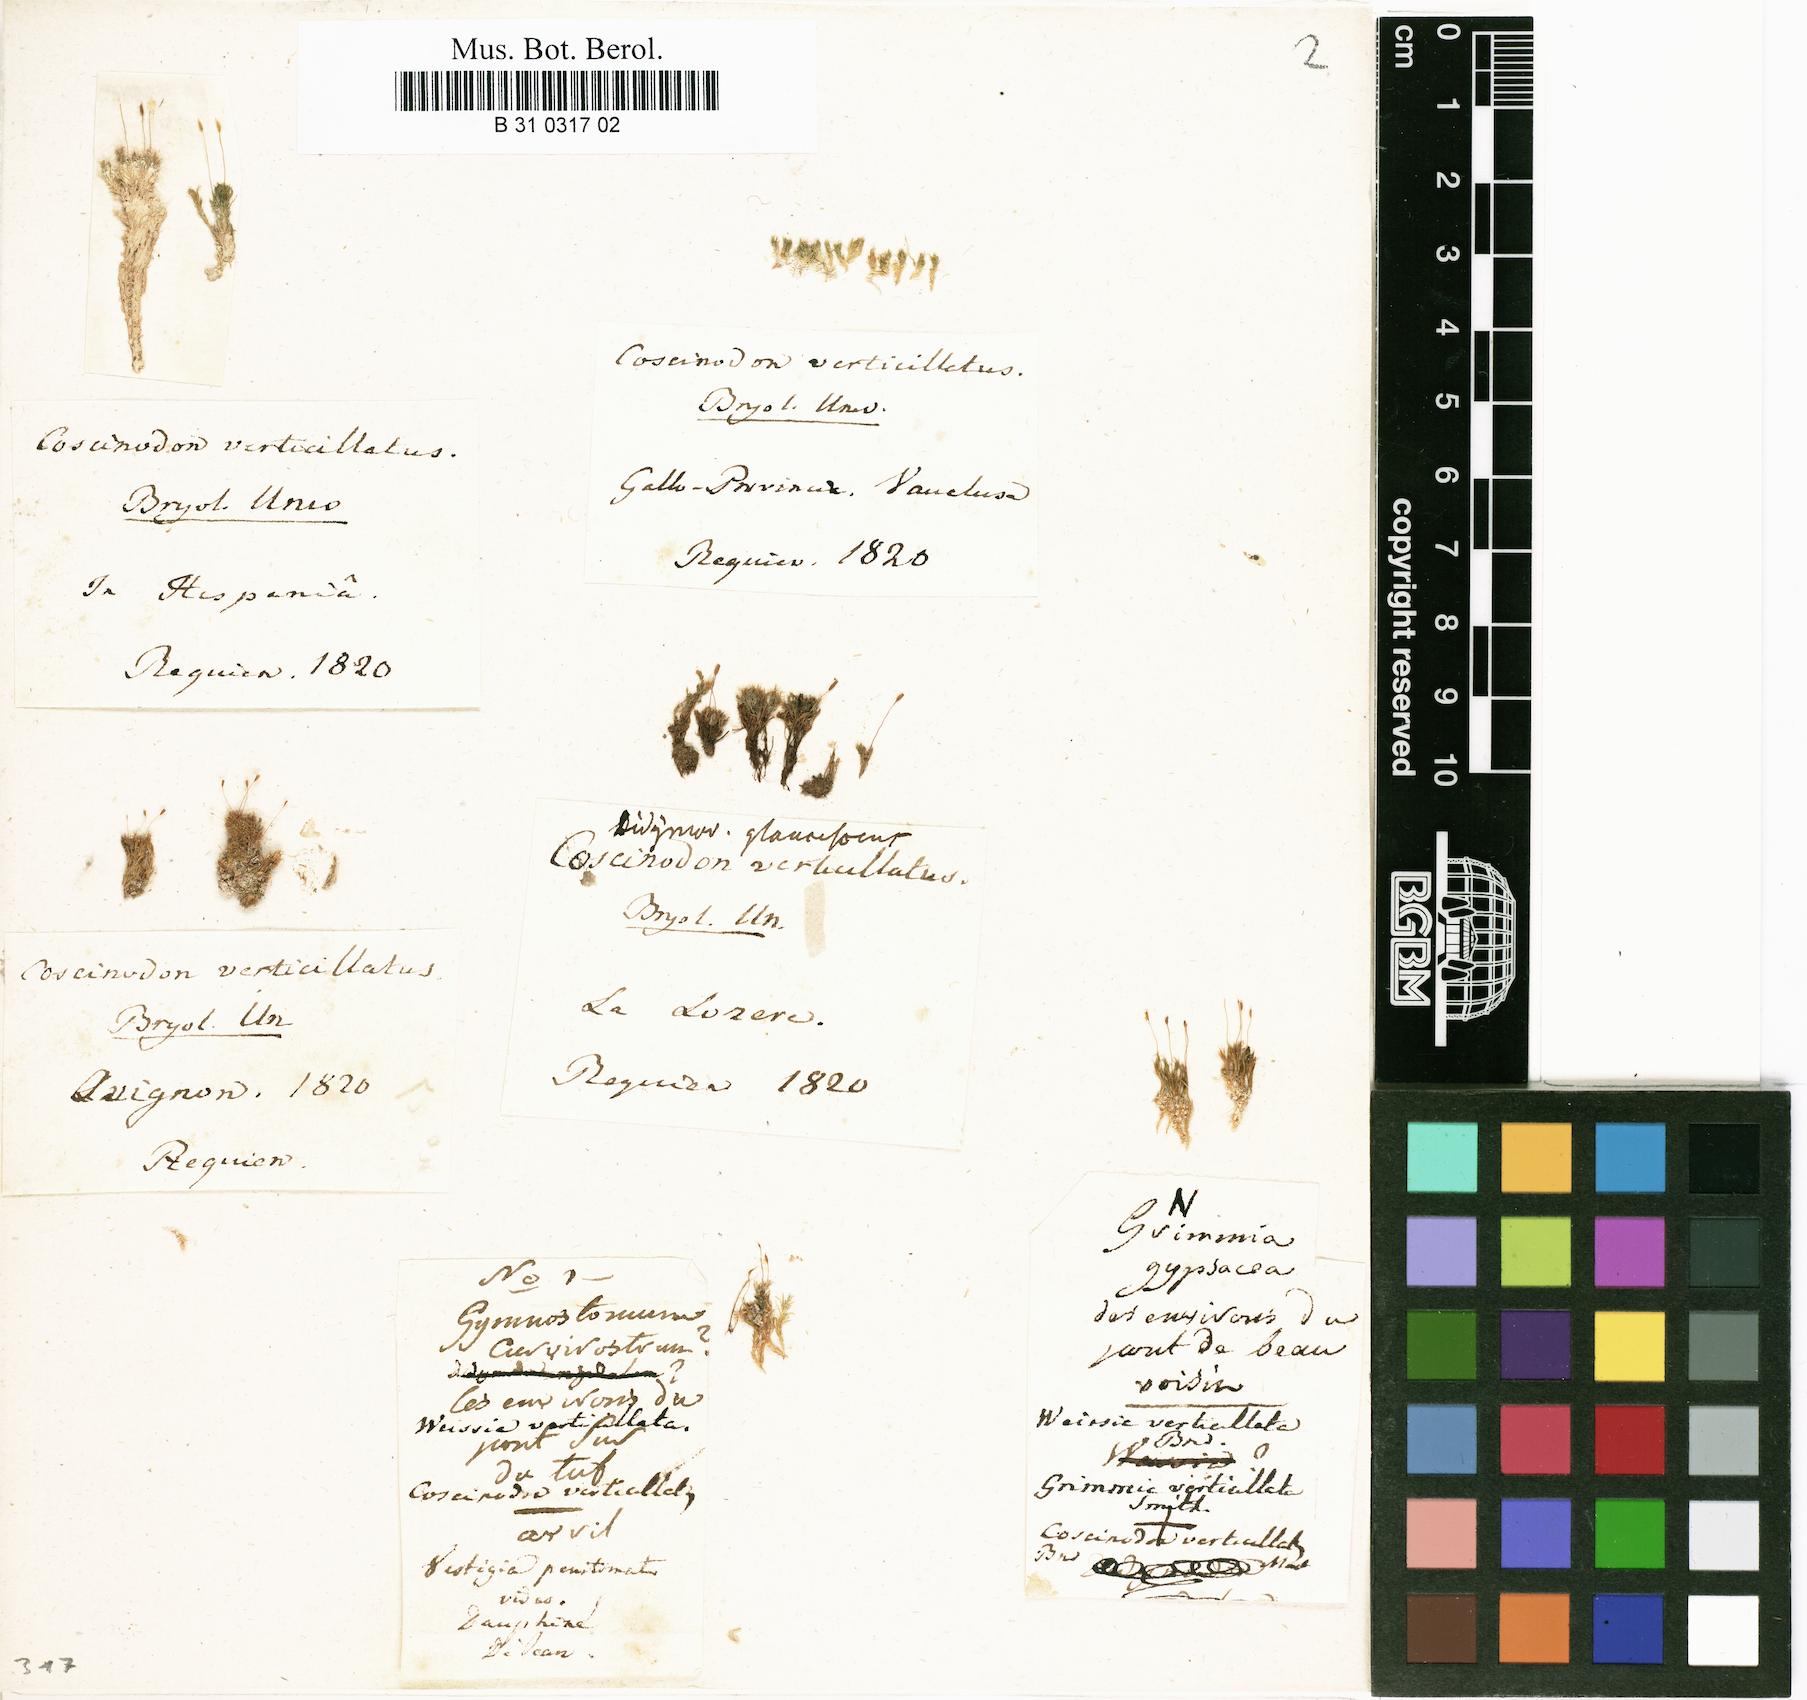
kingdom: Plantae
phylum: Bryophyta
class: Bryopsida
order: Pottiales
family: Pottiaceae
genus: Eucladium
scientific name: Eucladium verticillatum
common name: Whorled tufa-moss
